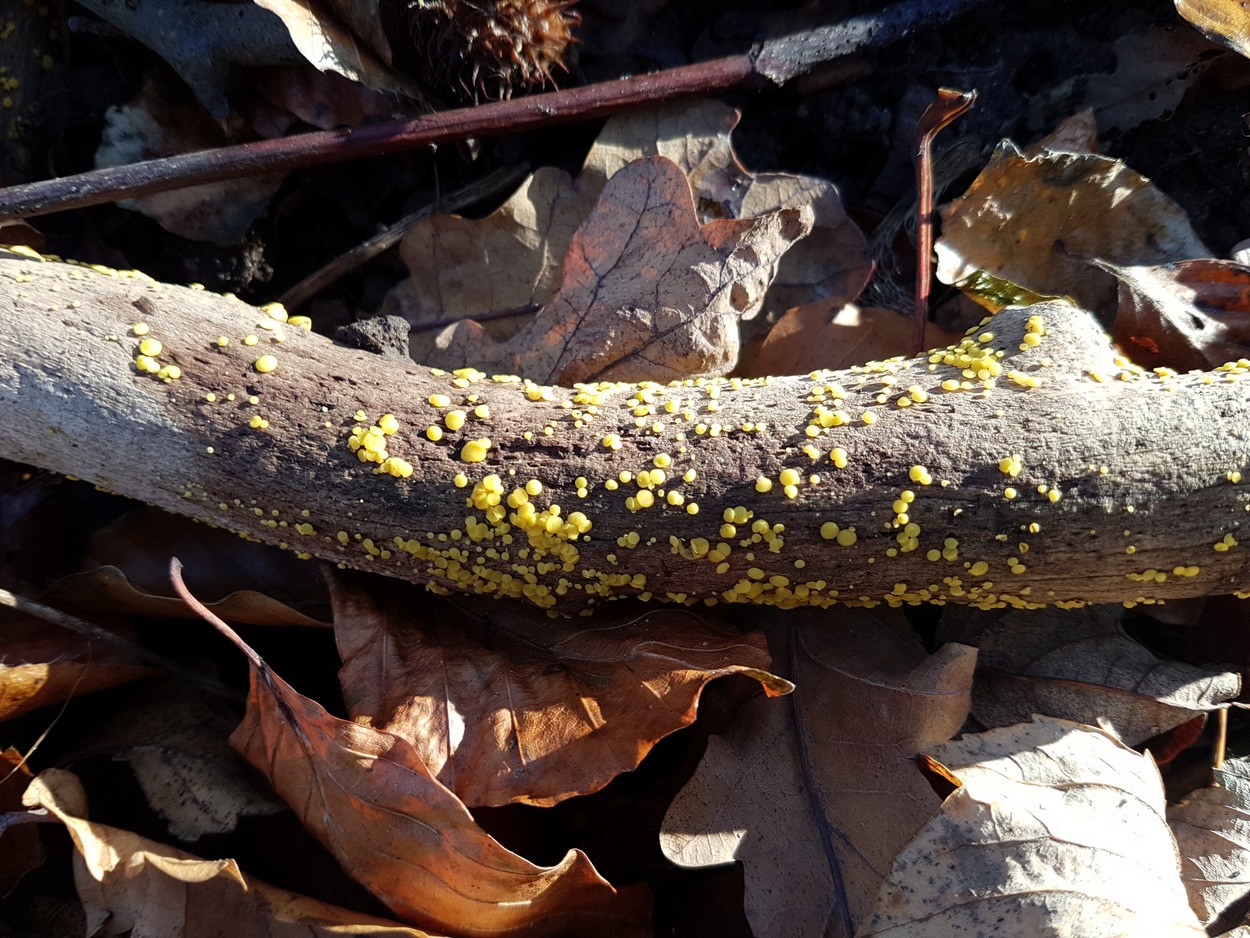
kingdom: Fungi
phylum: Ascomycota
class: Leotiomycetes
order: Helotiales
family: Pezizellaceae
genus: Calycina
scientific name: Calycina citrina
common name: almindelig gulskive
